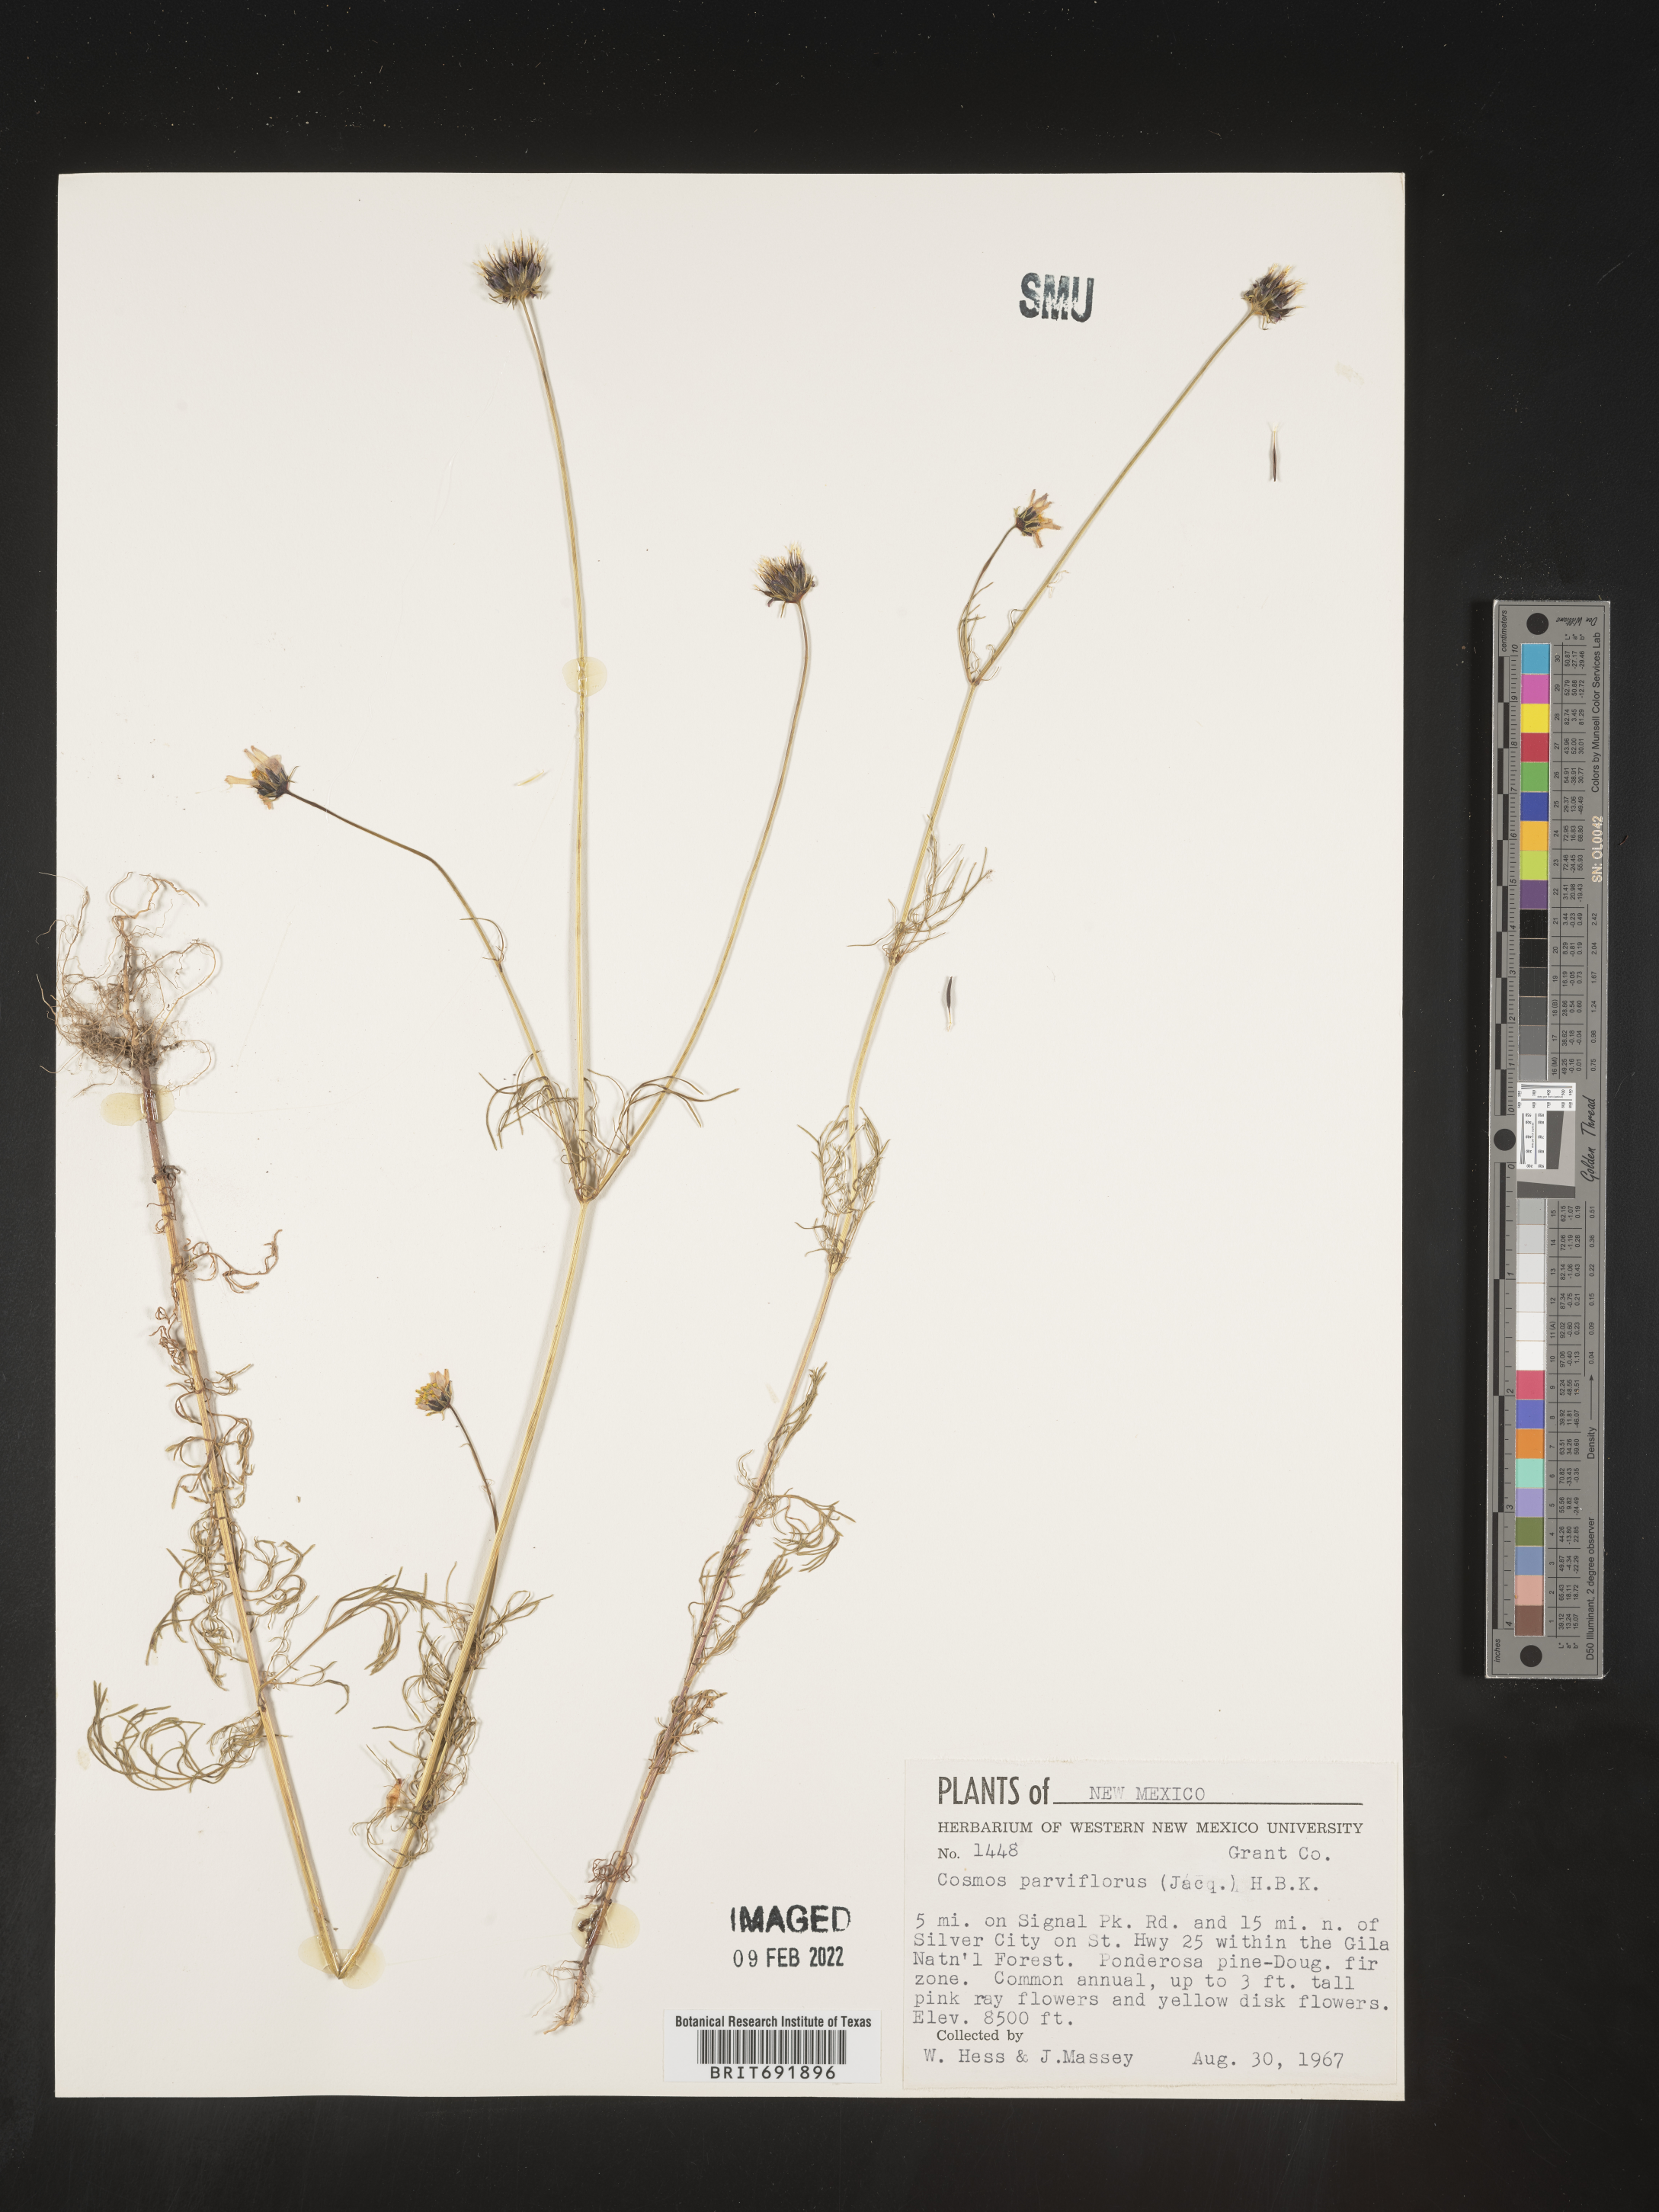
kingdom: Plantae
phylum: Tracheophyta
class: Magnoliopsida
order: Asterales
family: Asteraceae
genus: Cosmos
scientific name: Cosmos
